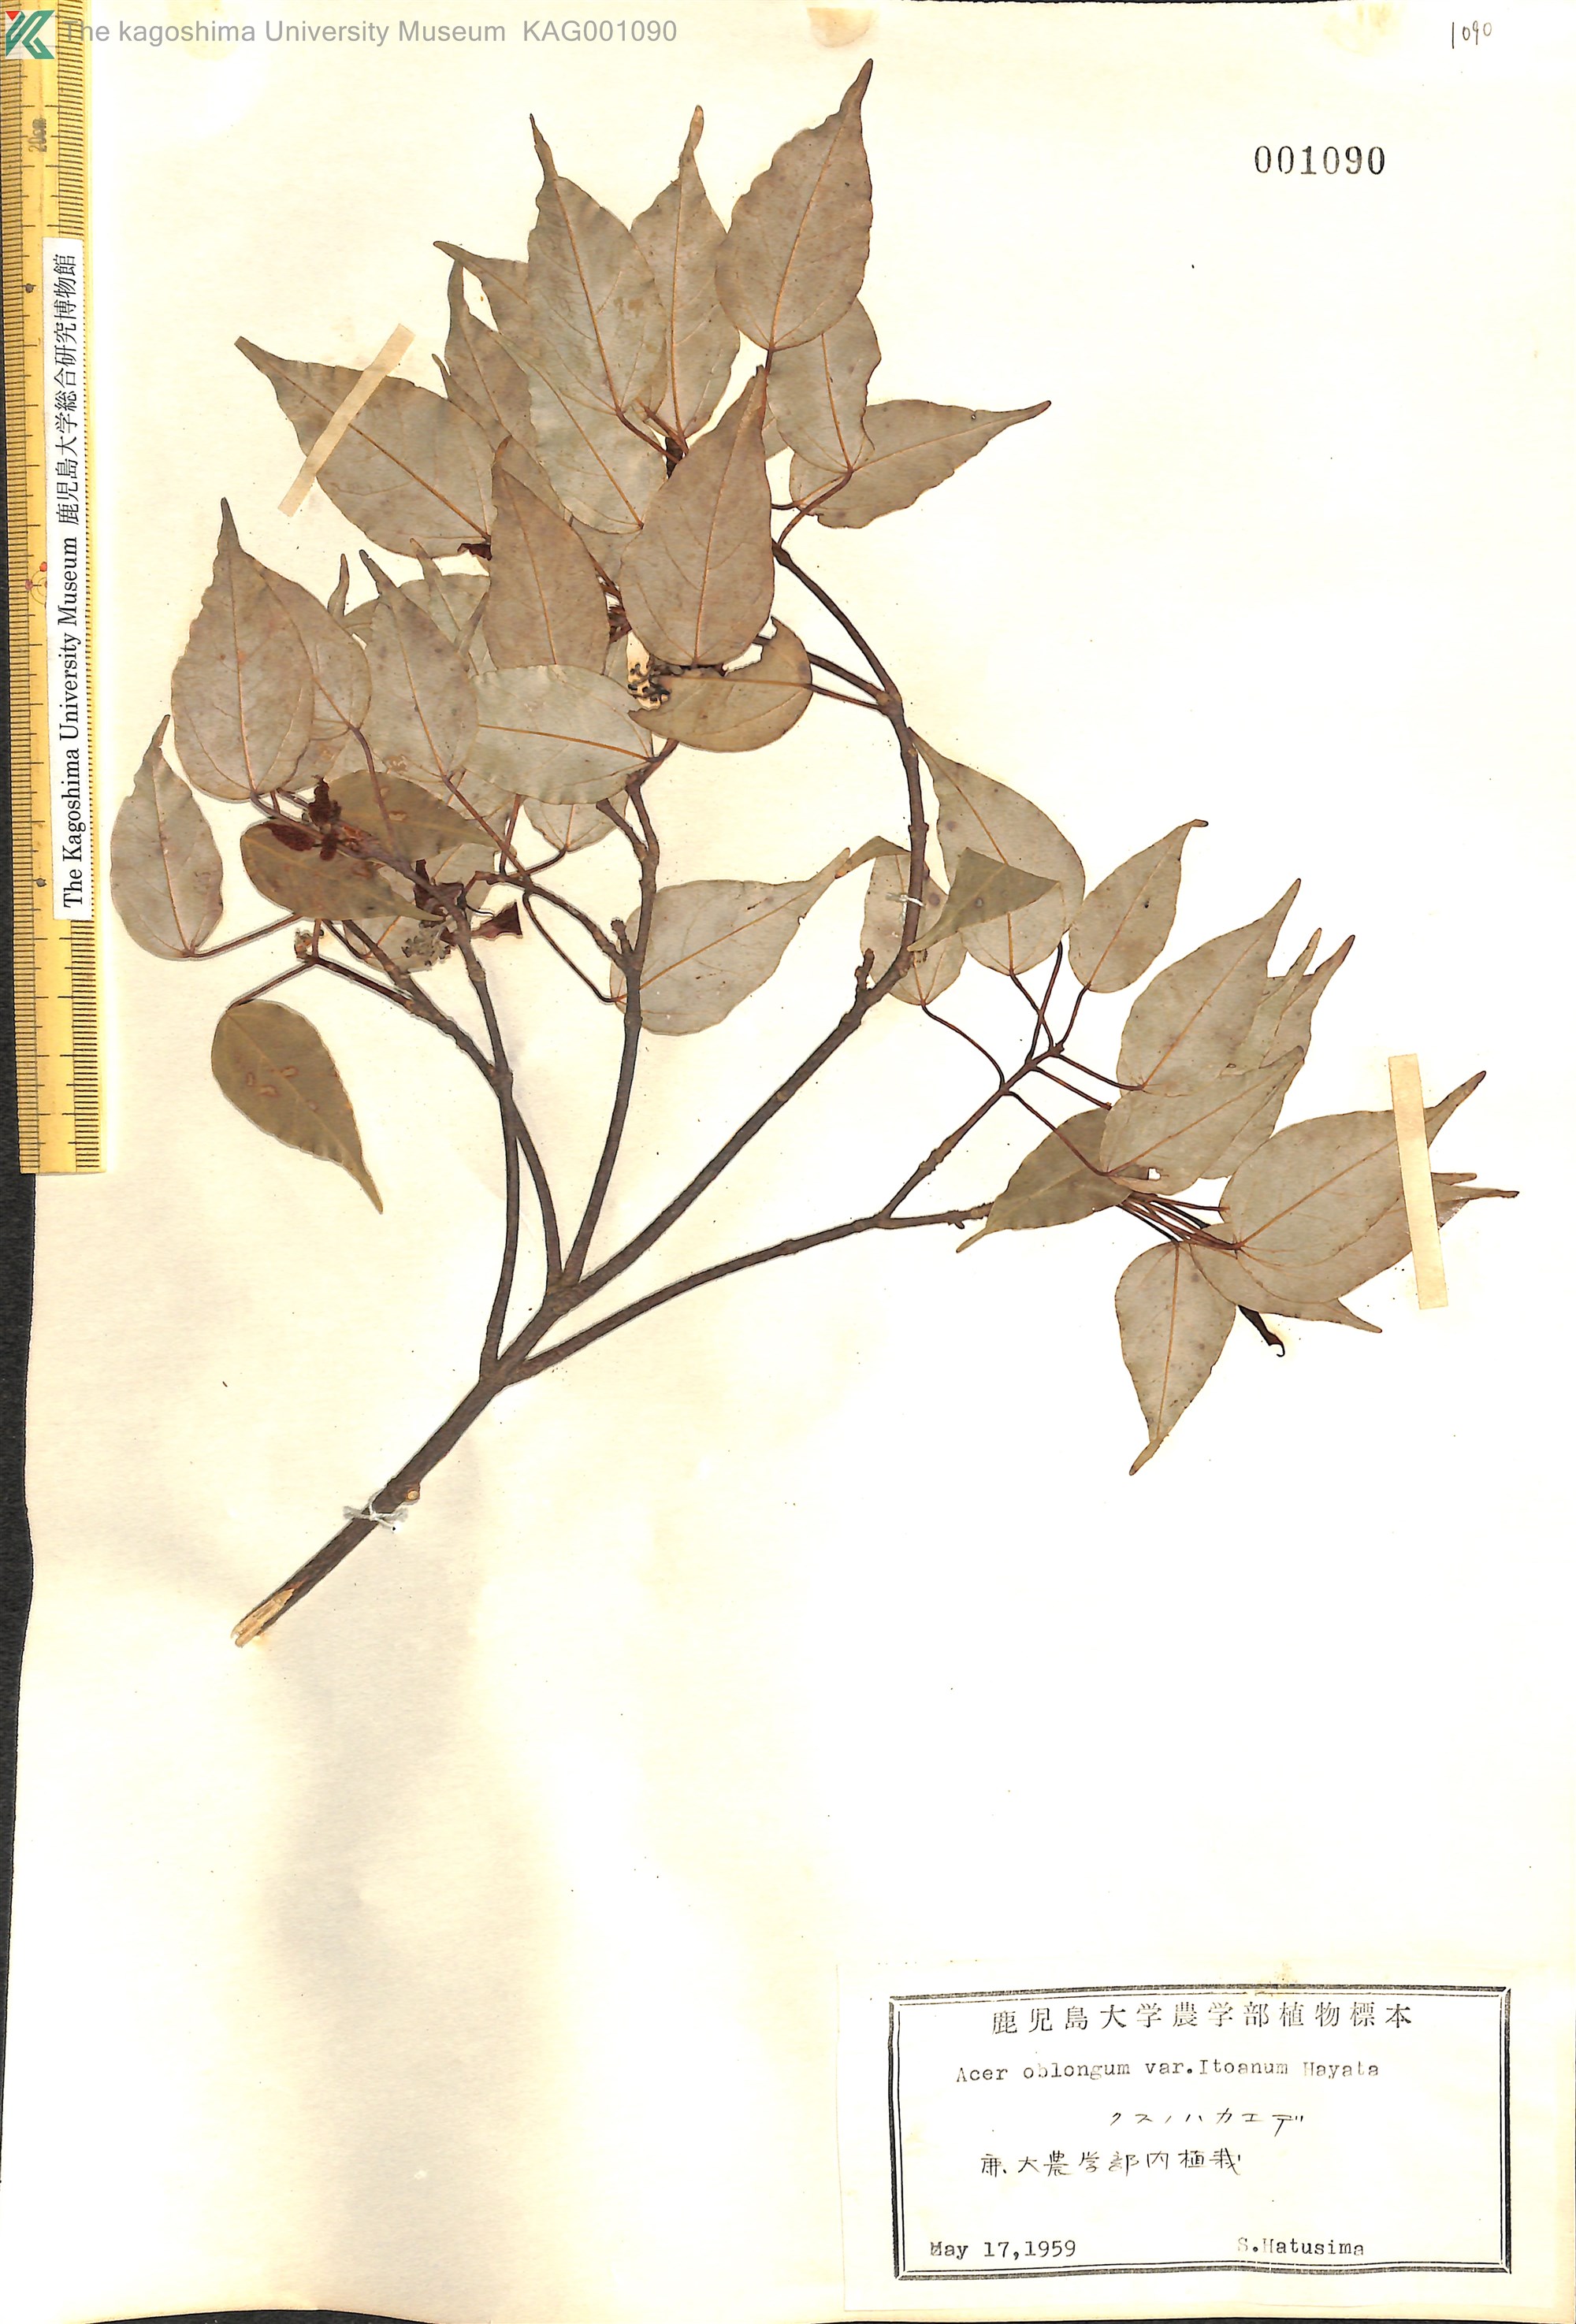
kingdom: Plantae
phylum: Tracheophyta
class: Magnoliopsida
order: Sapindales
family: Sapindaceae
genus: Acer
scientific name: Acer oblongum
